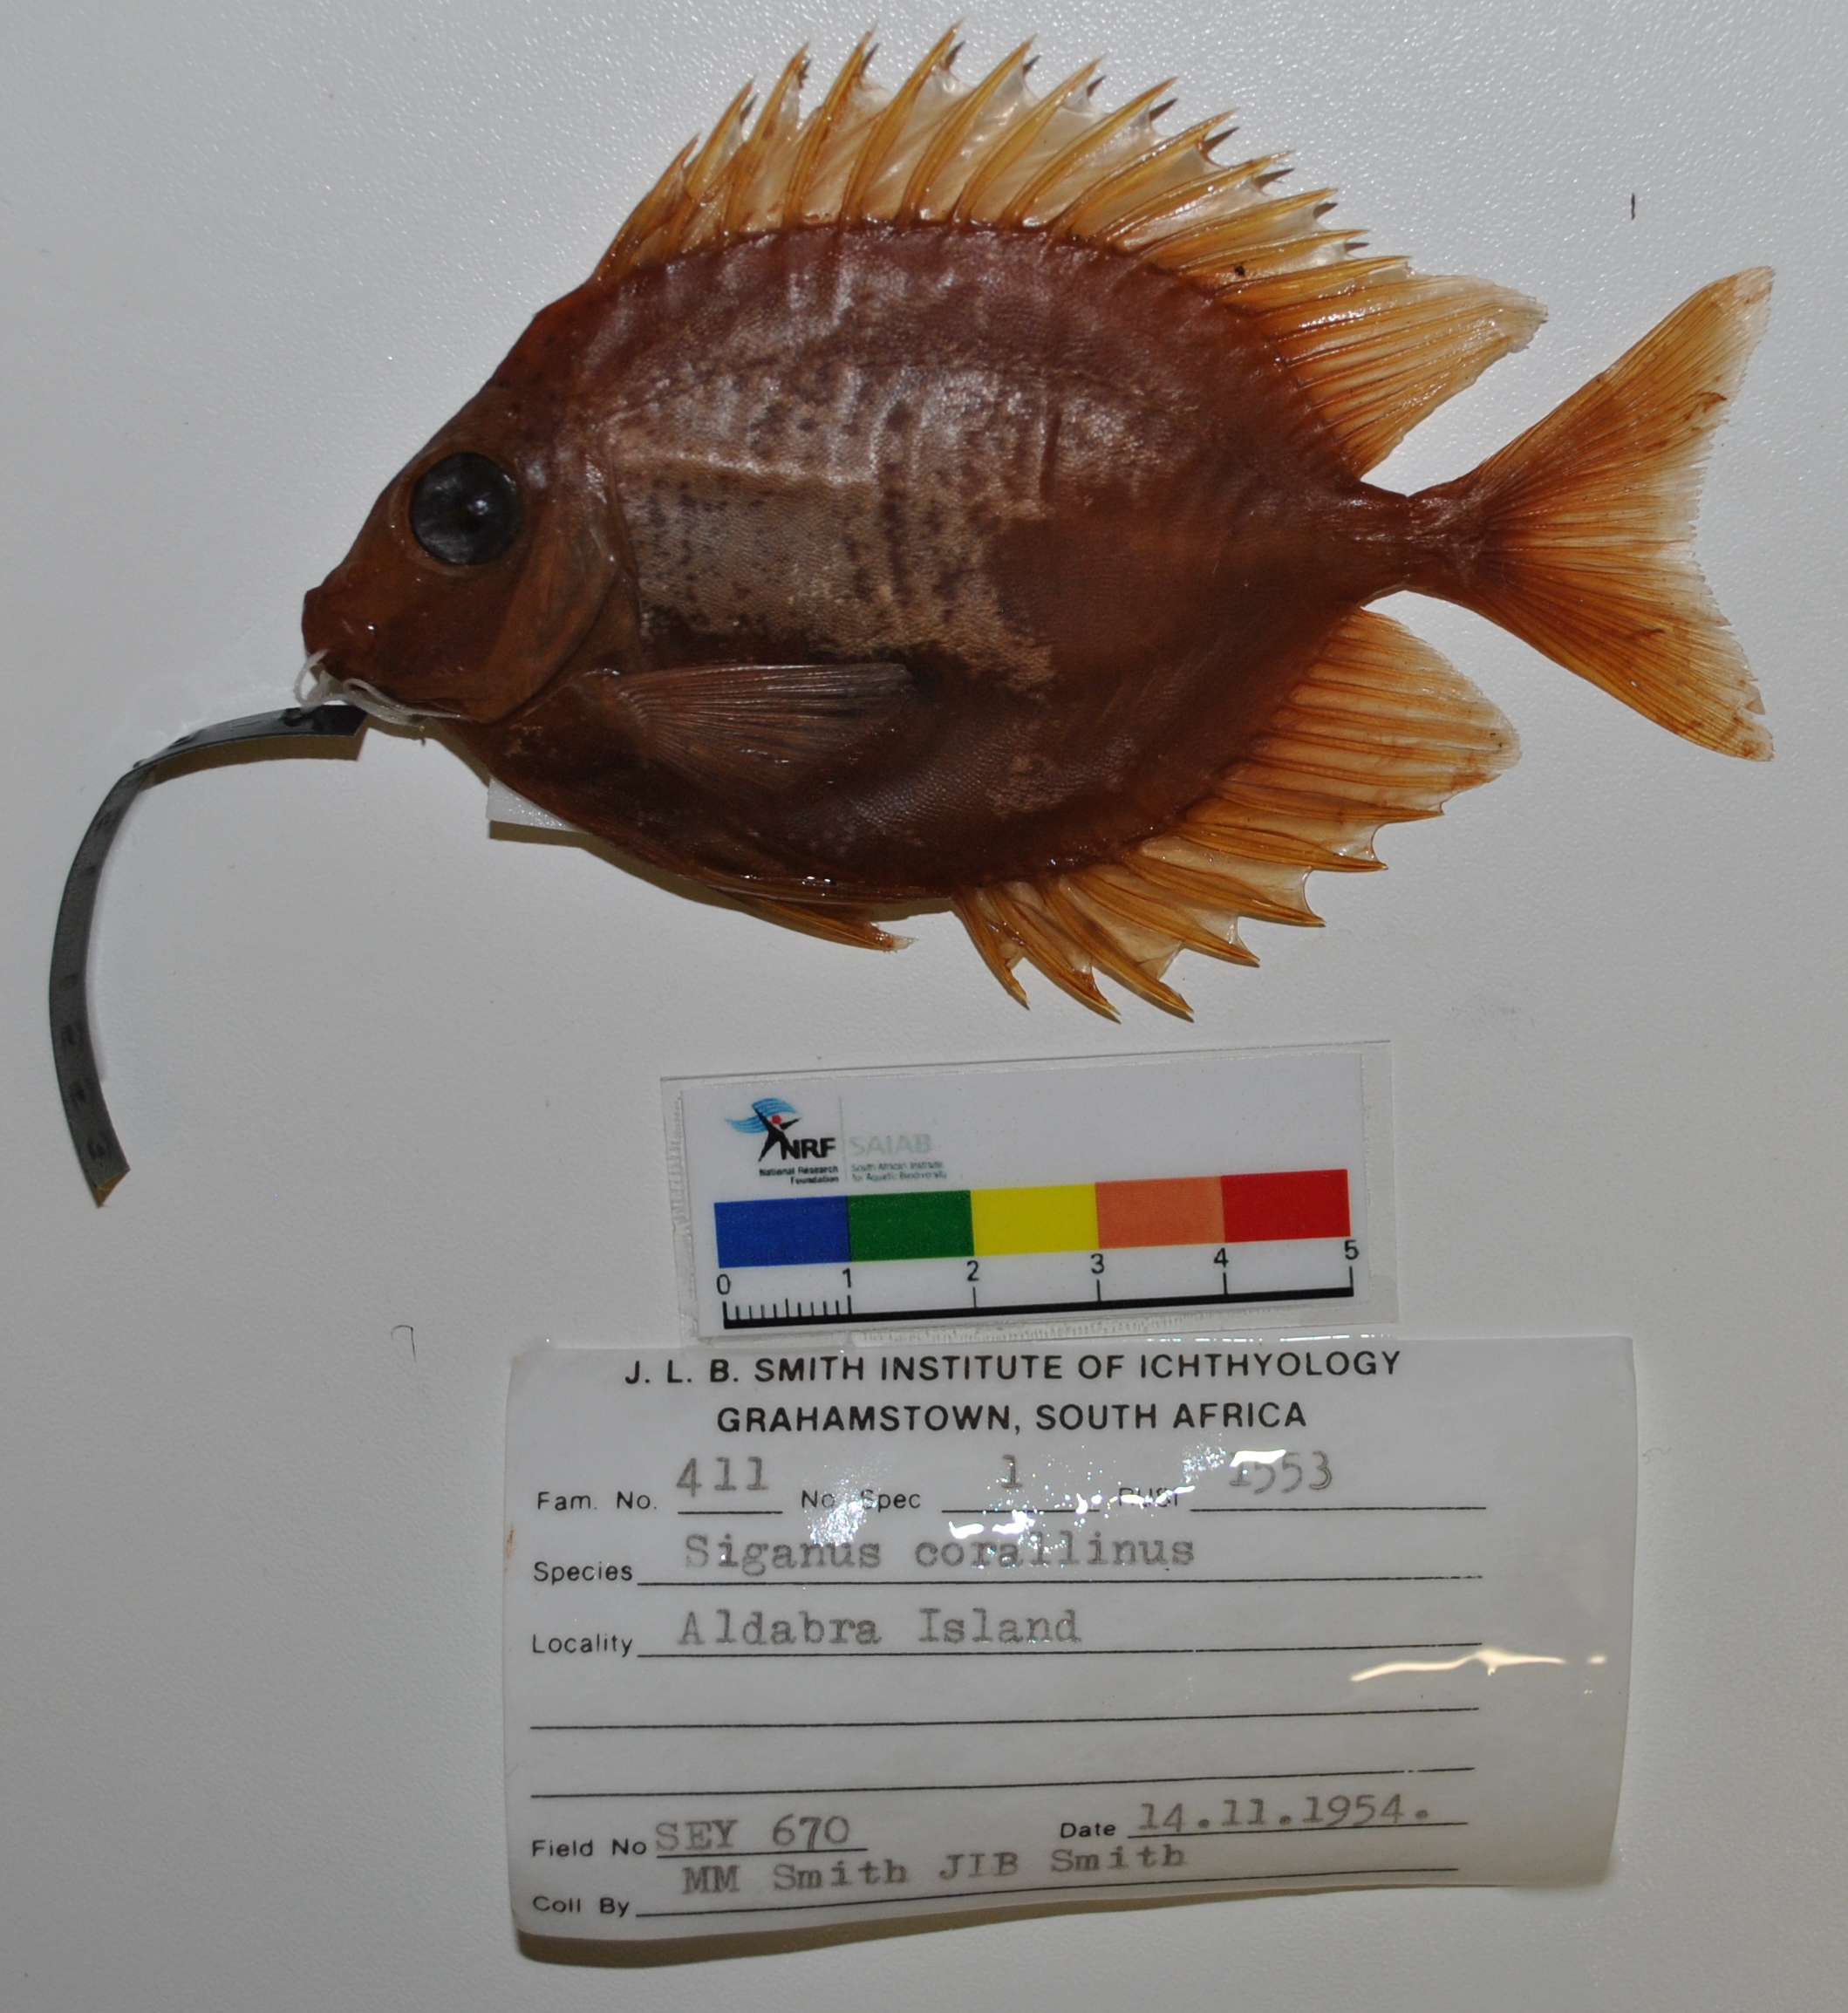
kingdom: Animalia
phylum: Chordata
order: Perciformes
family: Siganidae
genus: Siganus
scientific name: Siganus corallinus
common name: Coral rabbitfish
